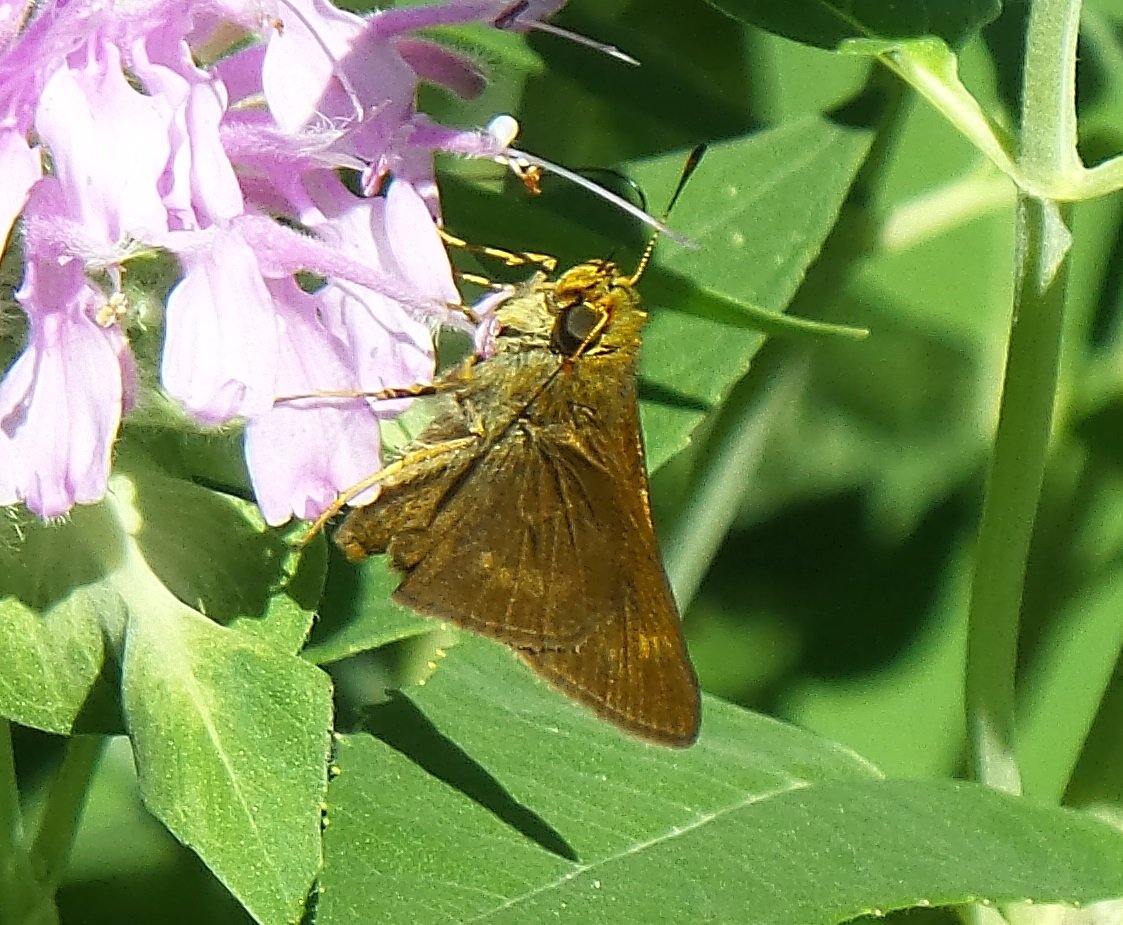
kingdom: Animalia
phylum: Arthropoda
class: Insecta
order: Lepidoptera
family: Hesperiidae
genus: Euphyes
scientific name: Euphyes vestris
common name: Dun Skipper
